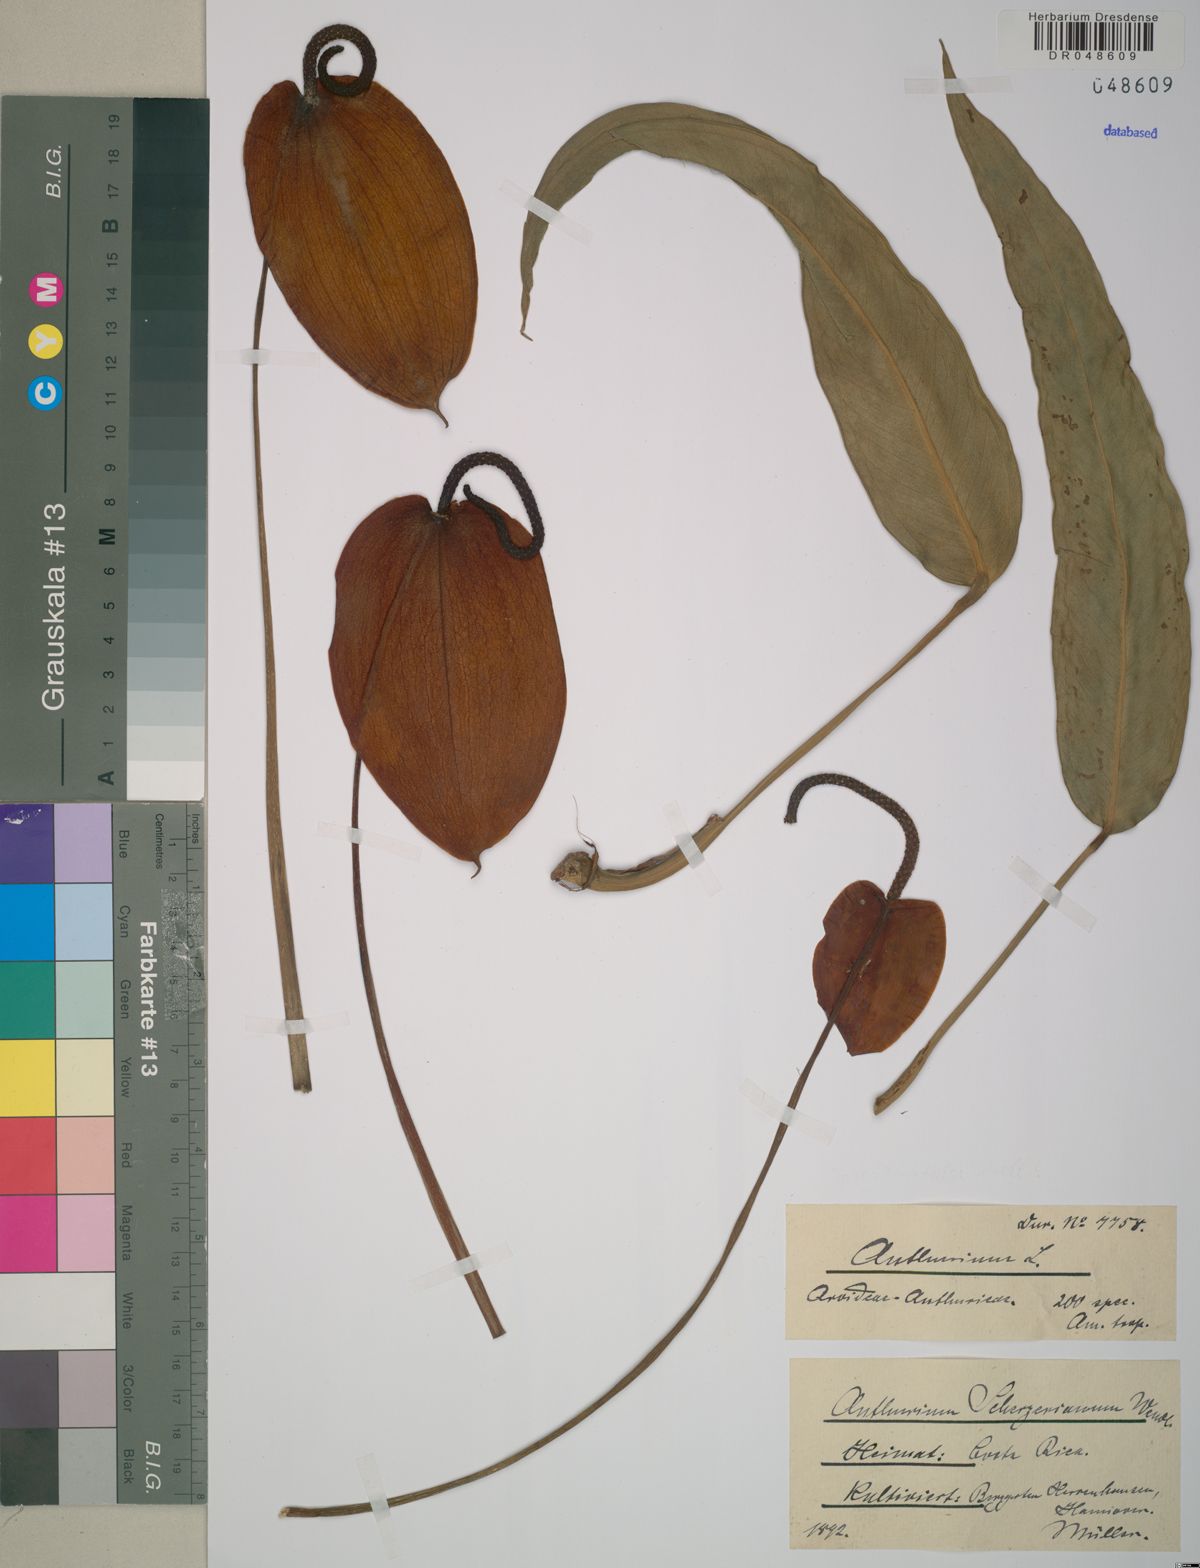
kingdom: Plantae
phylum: Tracheophyta
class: Liliopsida
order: Alismatales
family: Araceae
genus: Anthurium
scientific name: Anthurium scherzerianum
